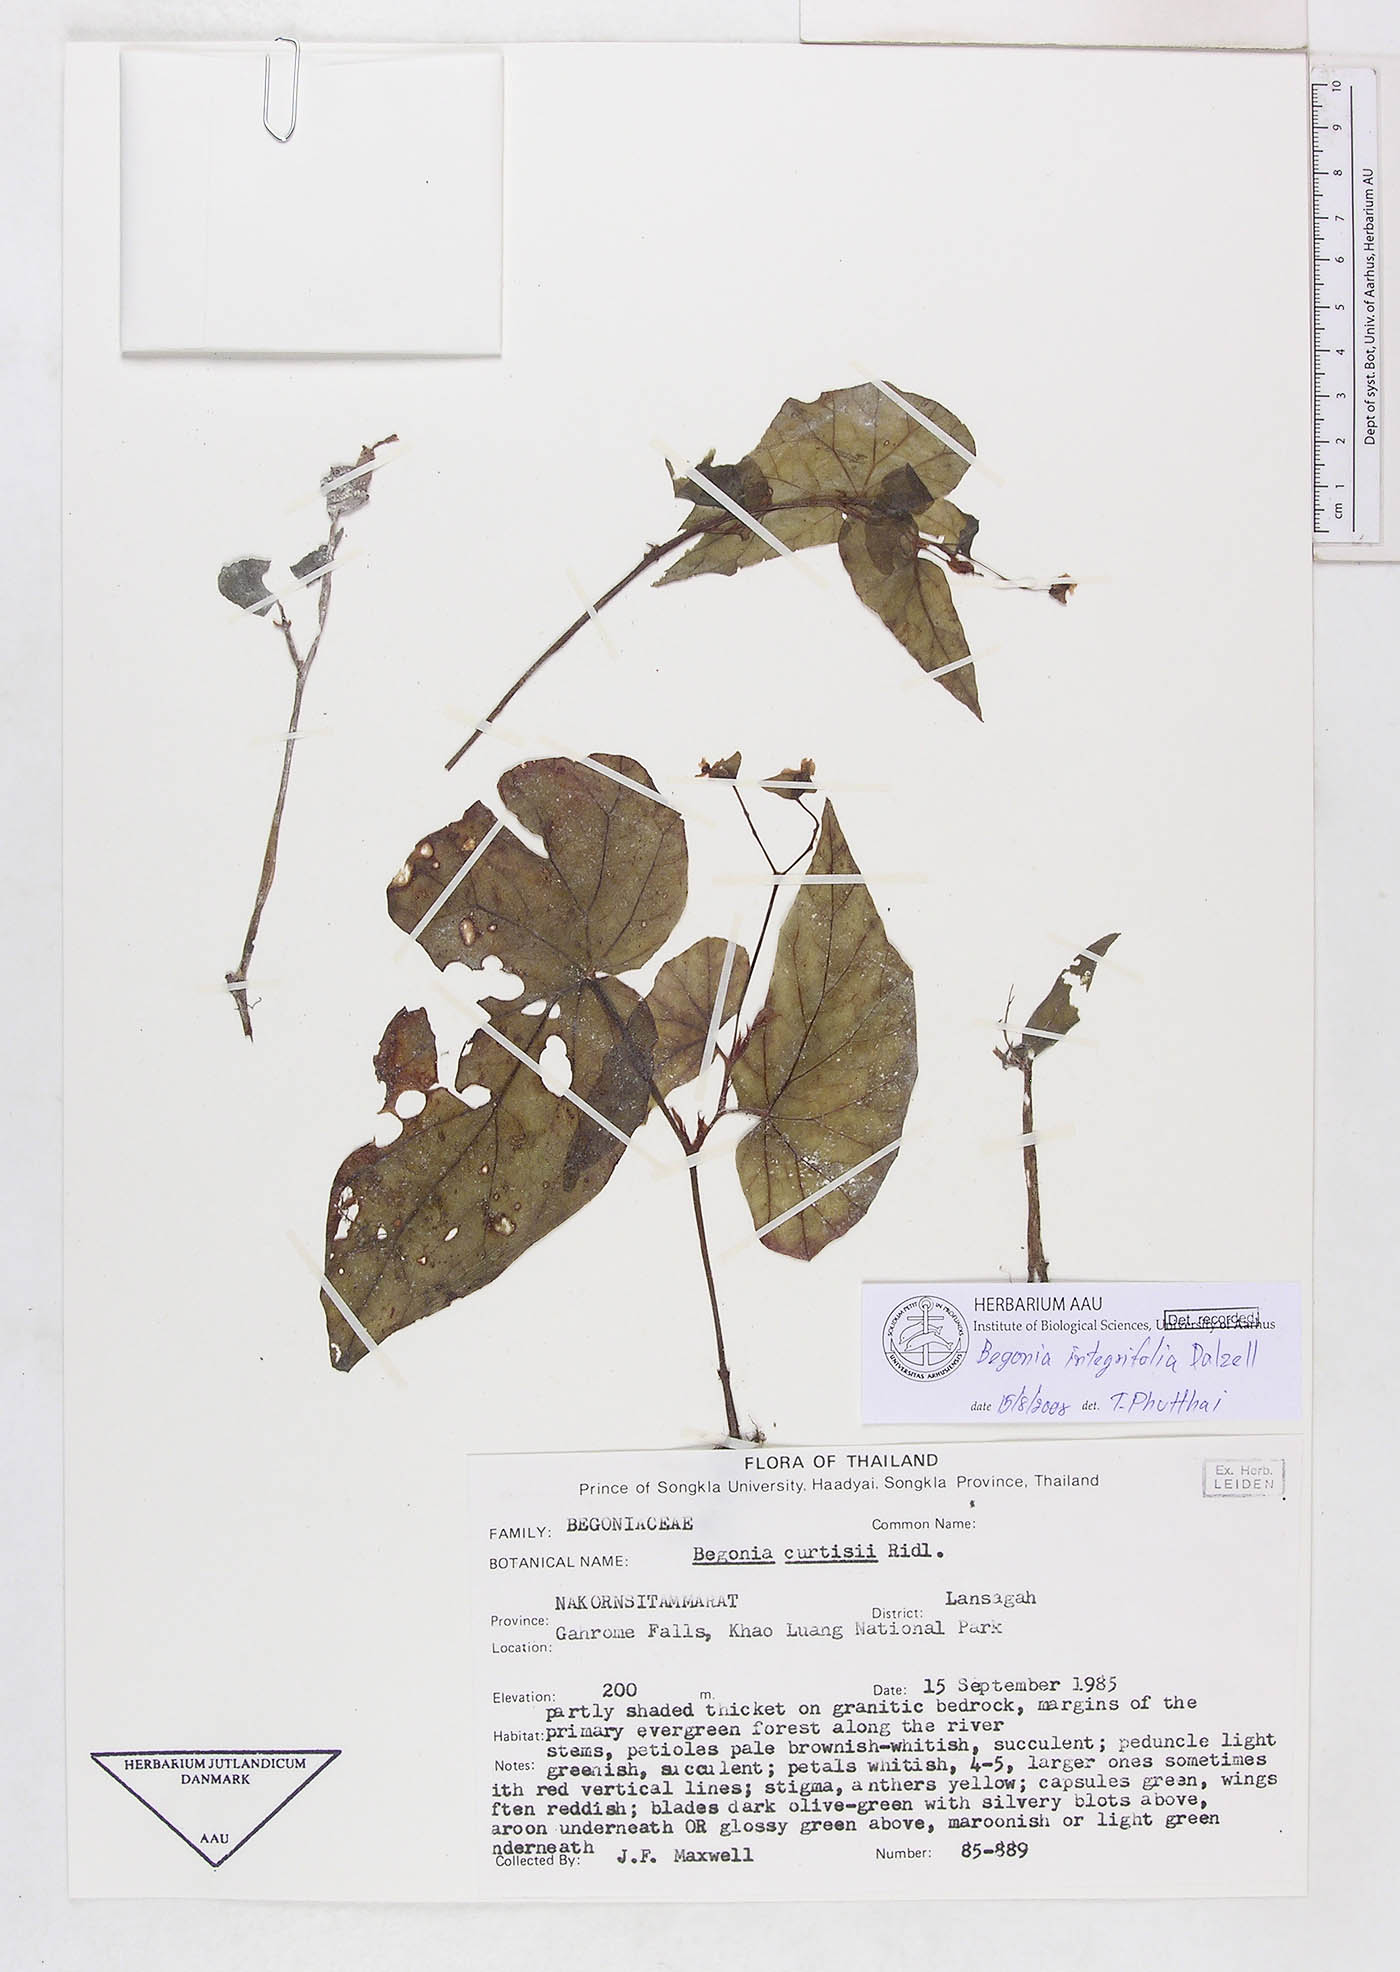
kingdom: Plantae
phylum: Tracheophyta
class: Magnoliopsida
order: Cucurbitales
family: Begoniaceae
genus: Begonia
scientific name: Begonia variabilis
